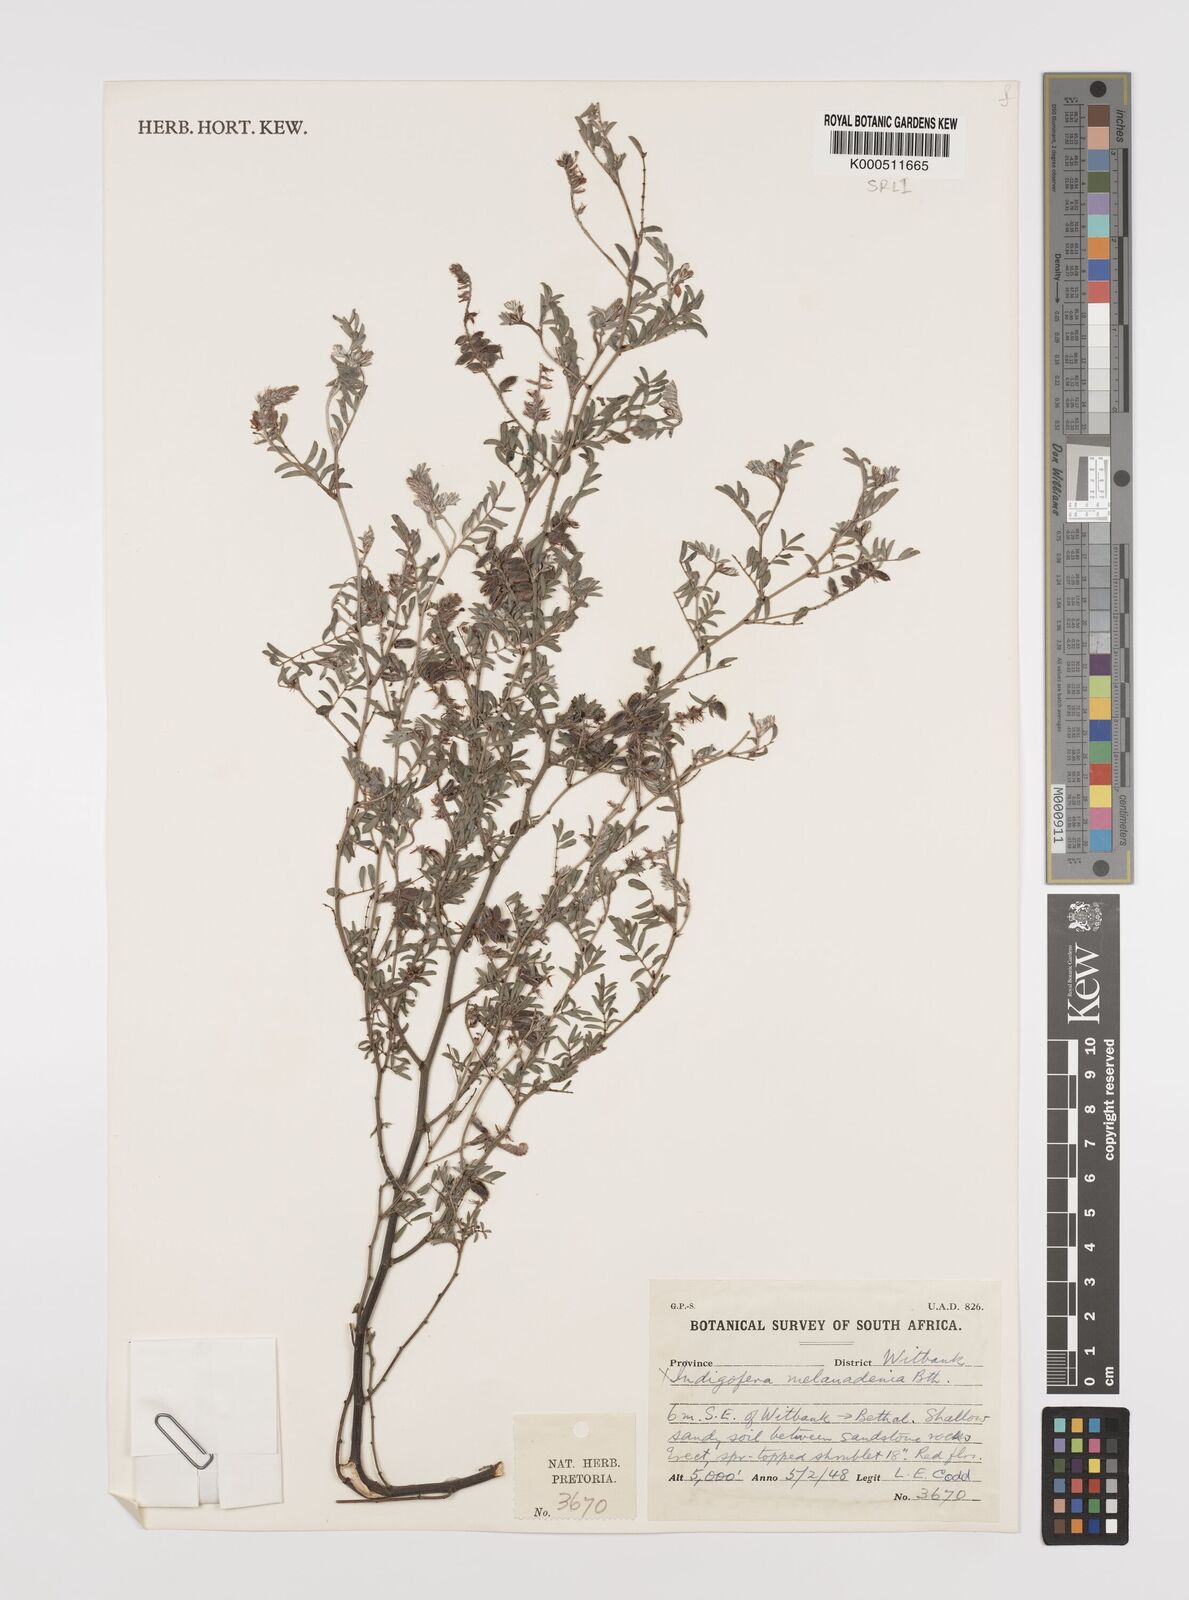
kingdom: Plantae
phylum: Tracheophyta
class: Magnoliopsida
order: Fabales
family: Fabaceae
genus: Indigofera
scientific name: Indigofera melanadenia
